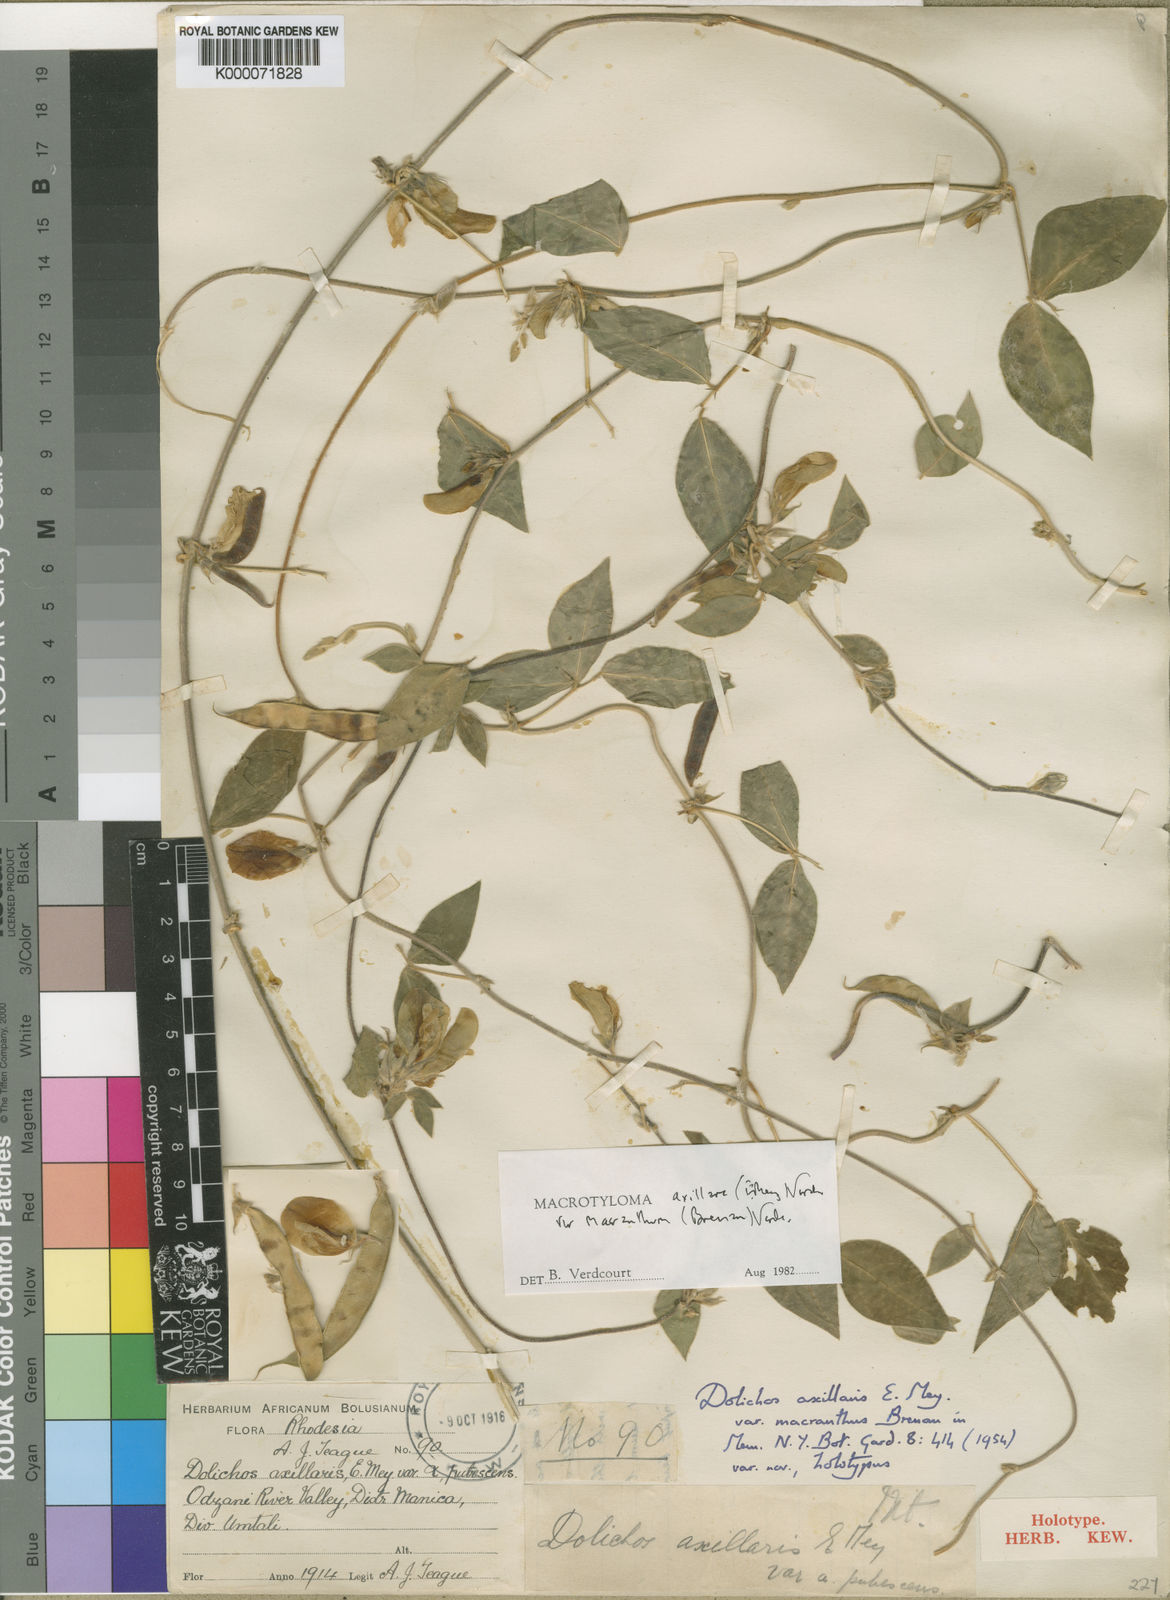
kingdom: Plantae
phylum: Tracheophyta
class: Magnoliopsida
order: Fabales
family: Fabaceae
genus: Macrotyloma
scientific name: Macrotyloma axillare
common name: Perennial horsegram
